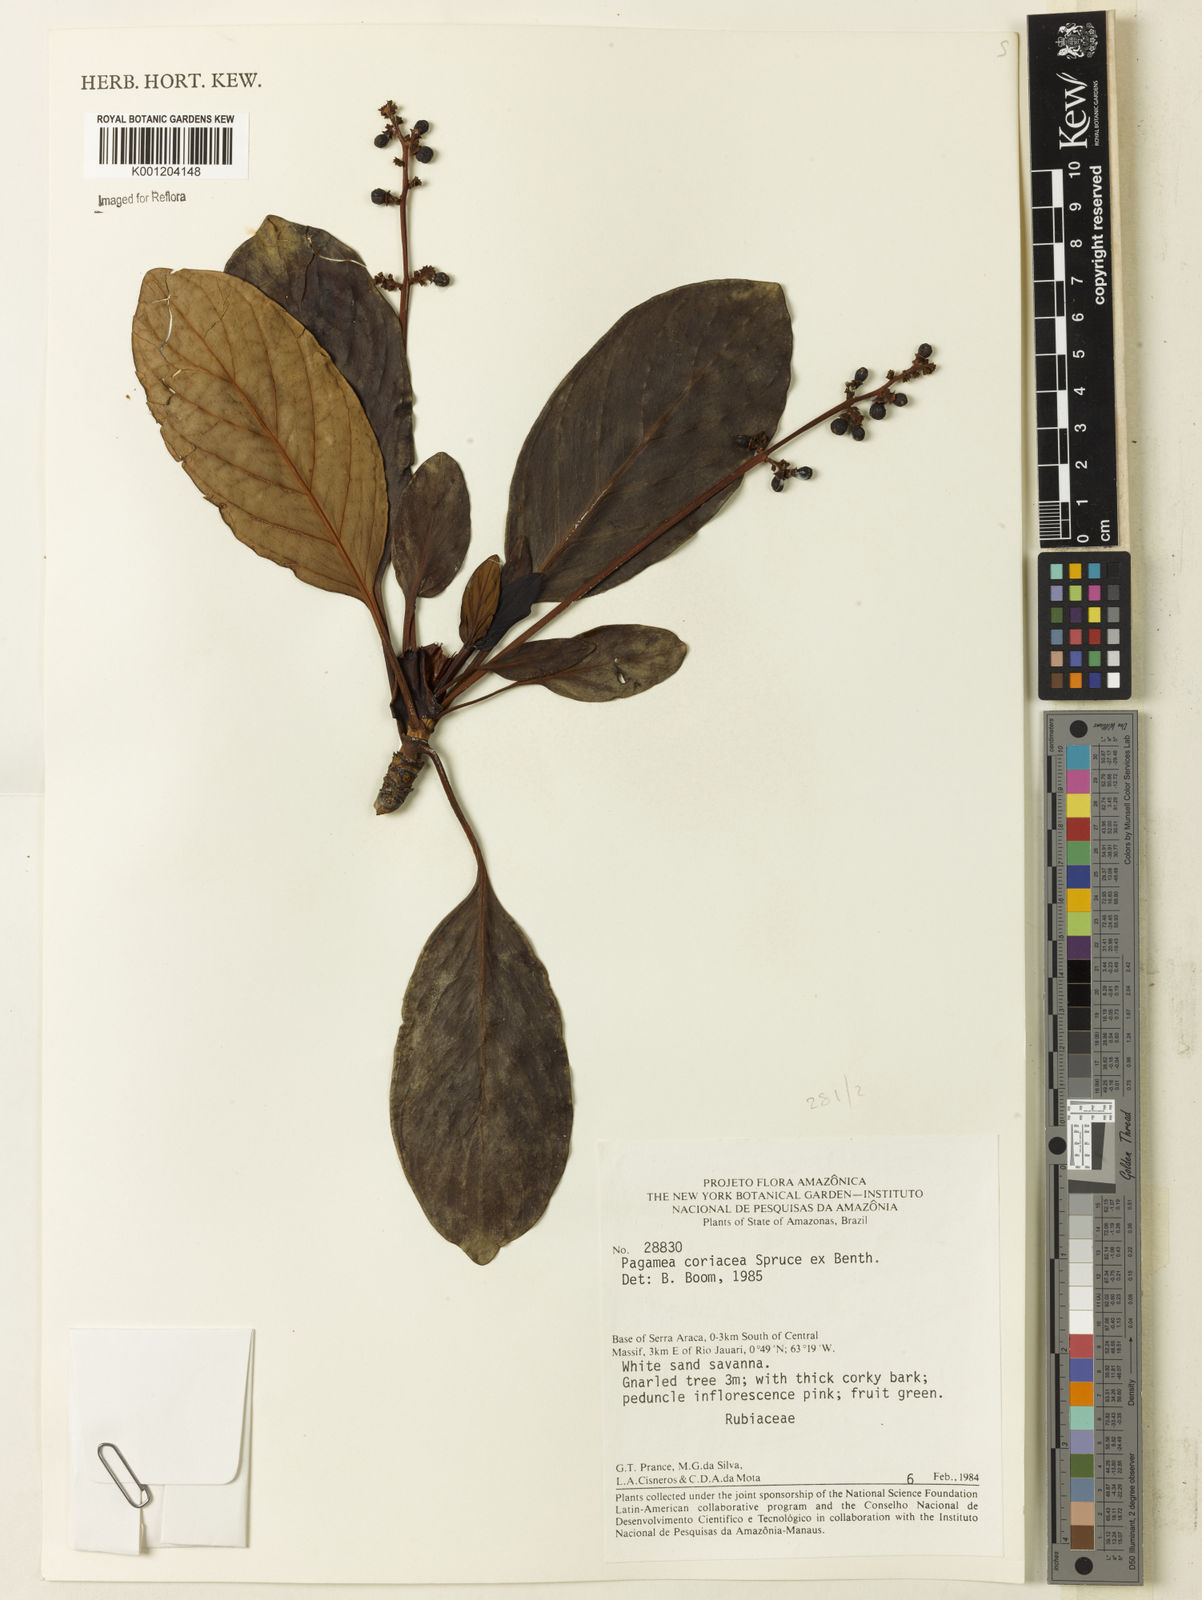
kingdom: Plantae
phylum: Tracheophyta
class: Magnoliopsida
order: Gentianales
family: Rubiaceae
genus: Pagamea
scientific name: Pagamea coriacea
